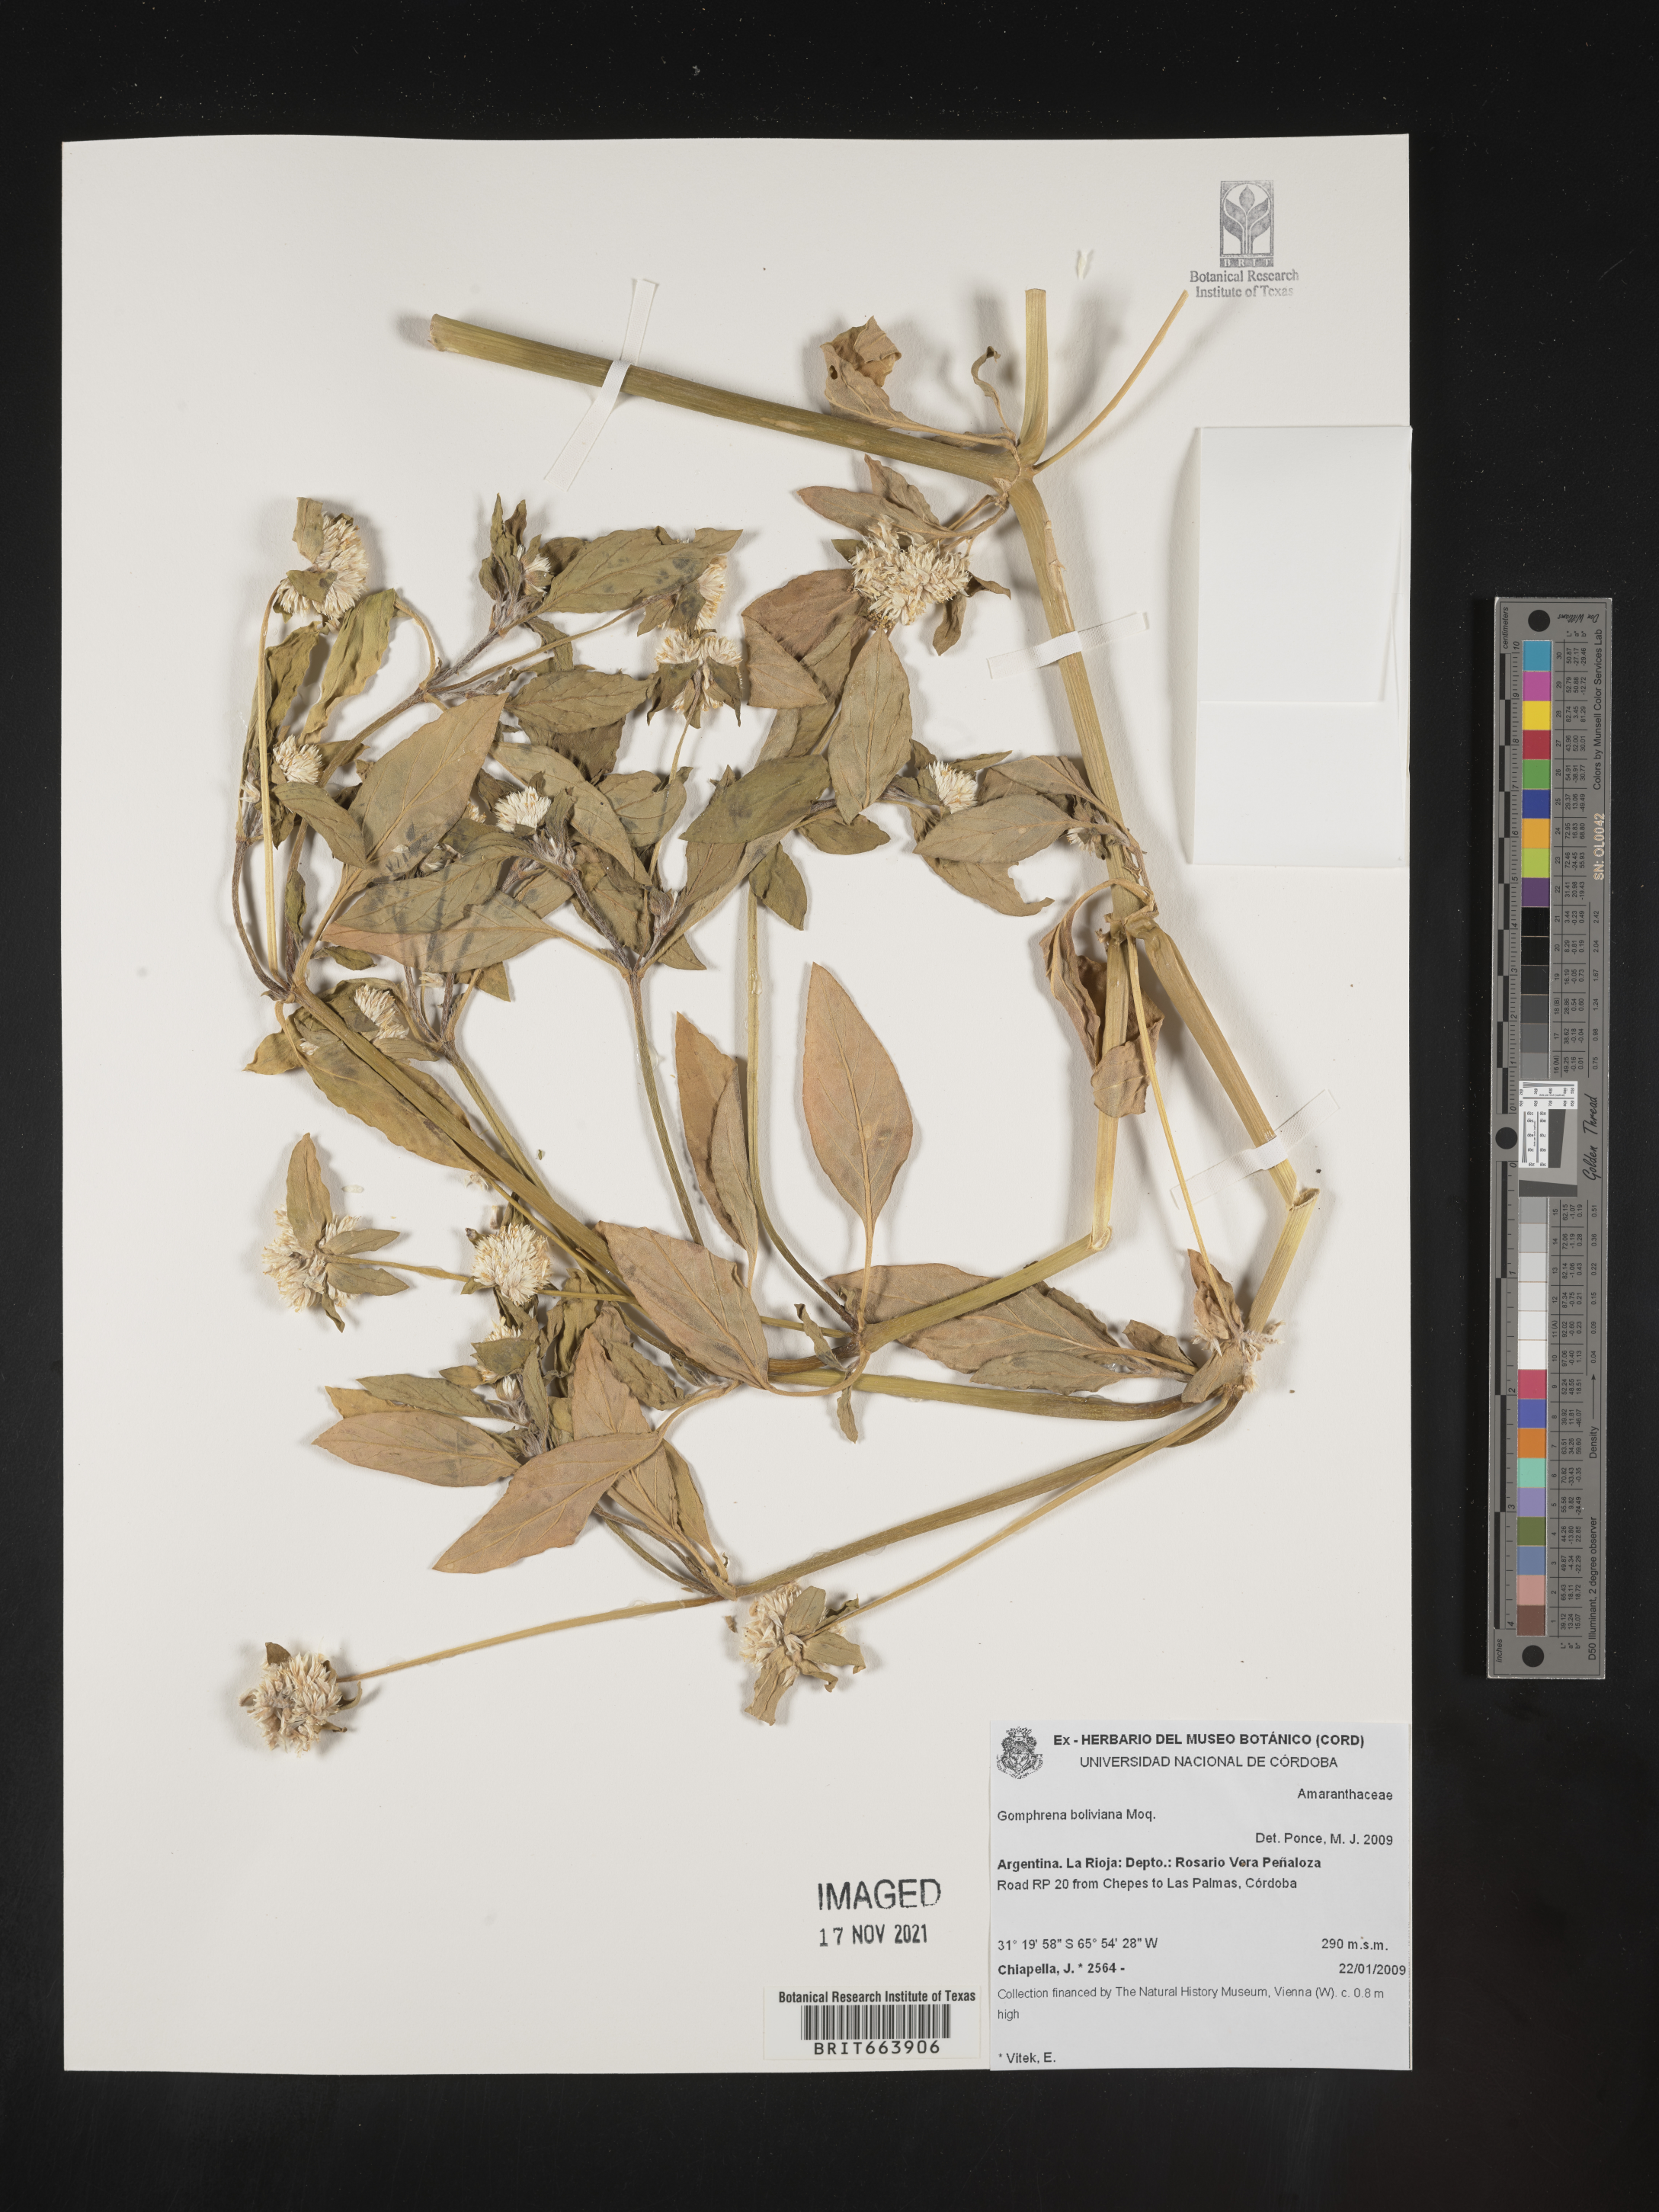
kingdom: Plantae
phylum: Tracheophyta
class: Magnoliopsida
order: Caryophyllales
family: Amaranthaceae
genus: Gomphrena
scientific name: Gomphrena
